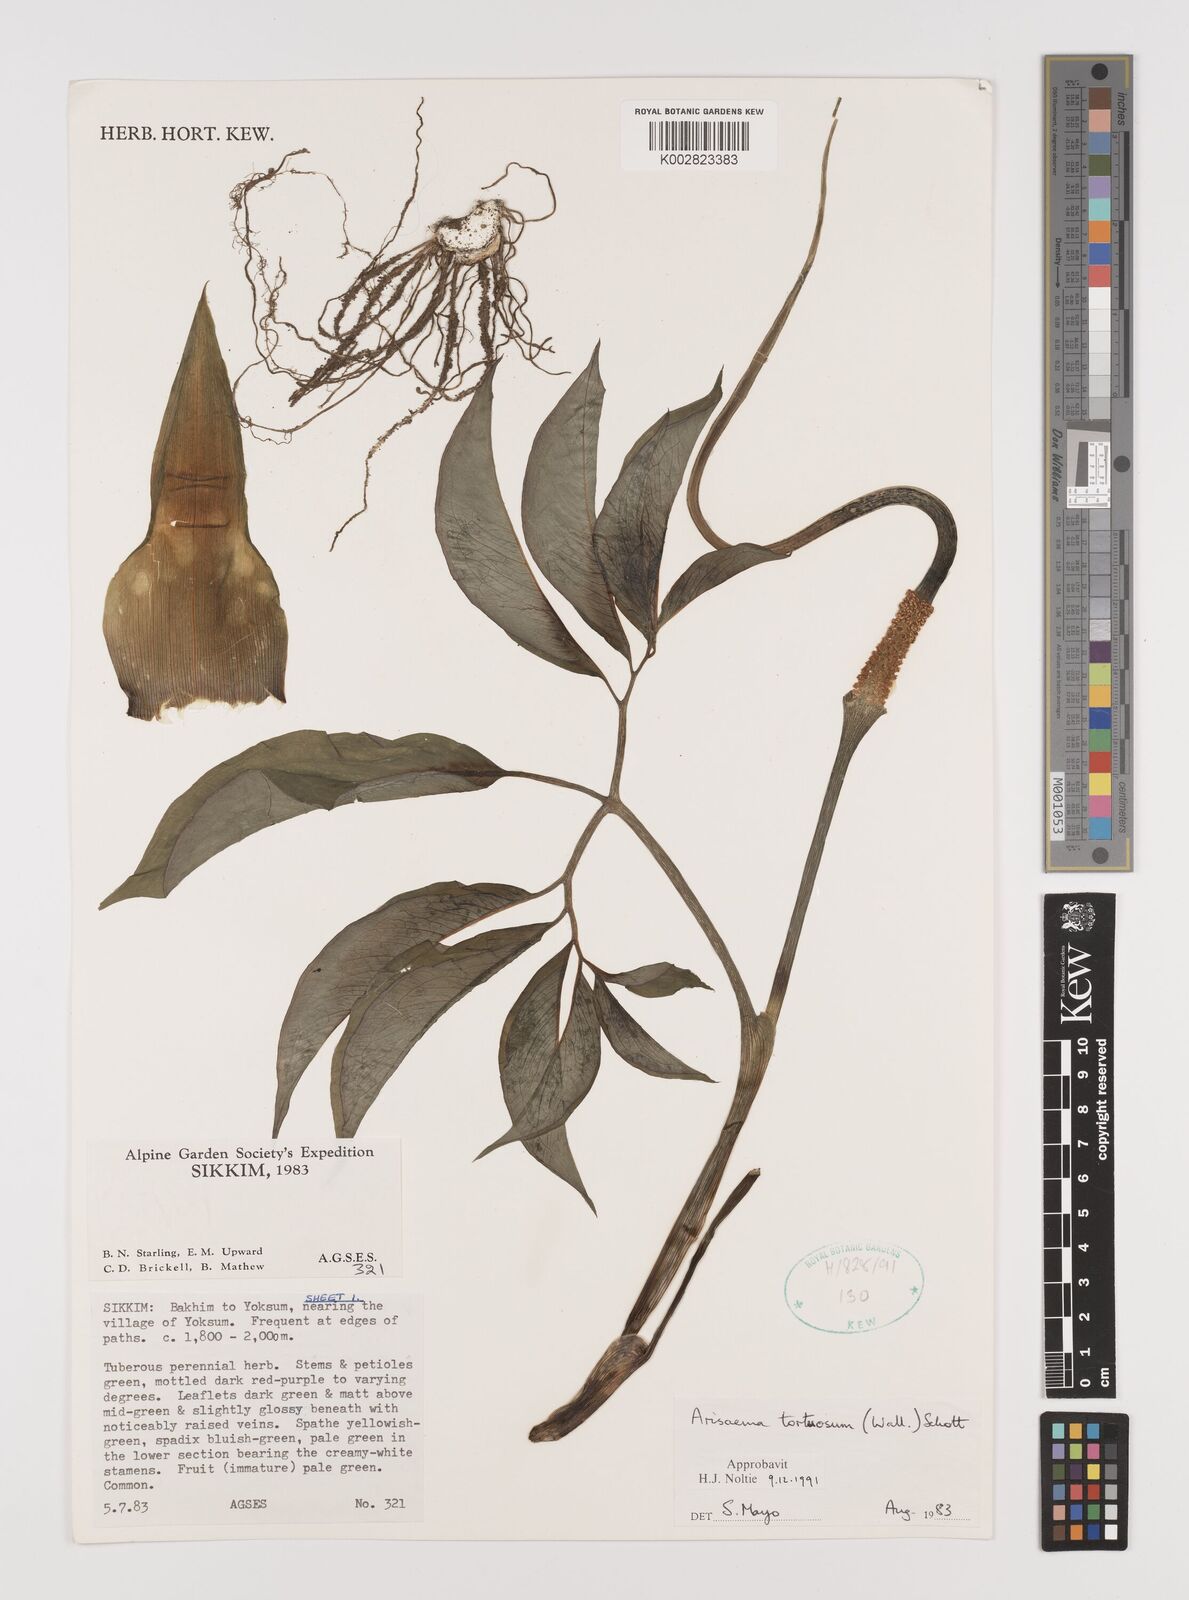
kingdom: Plantae
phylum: Tracheophyta
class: Liliopsida
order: Alismatales
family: Araceae
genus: Arisaema
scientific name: Arisaema tortuosum
